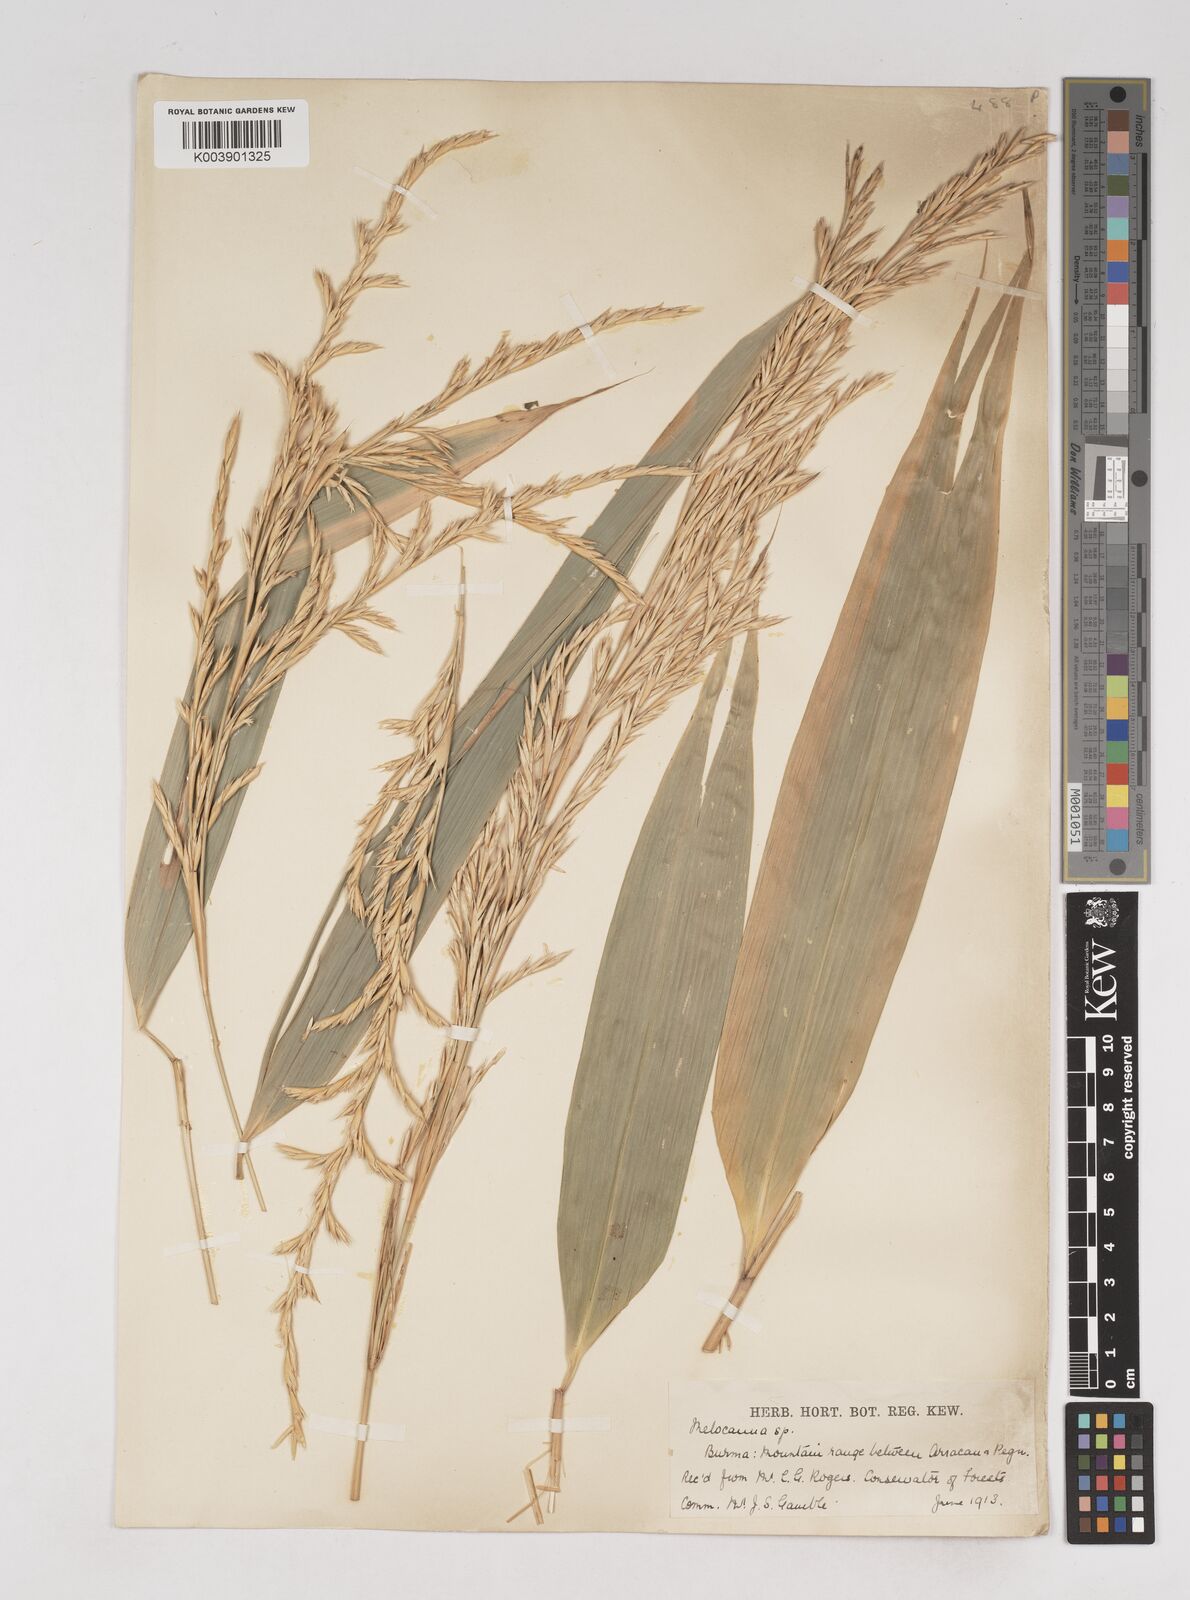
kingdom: Plantae
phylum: Tracheophyta
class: Liliopsida
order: Poales
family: Poaceae
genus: Melocanna
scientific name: Melocanna
